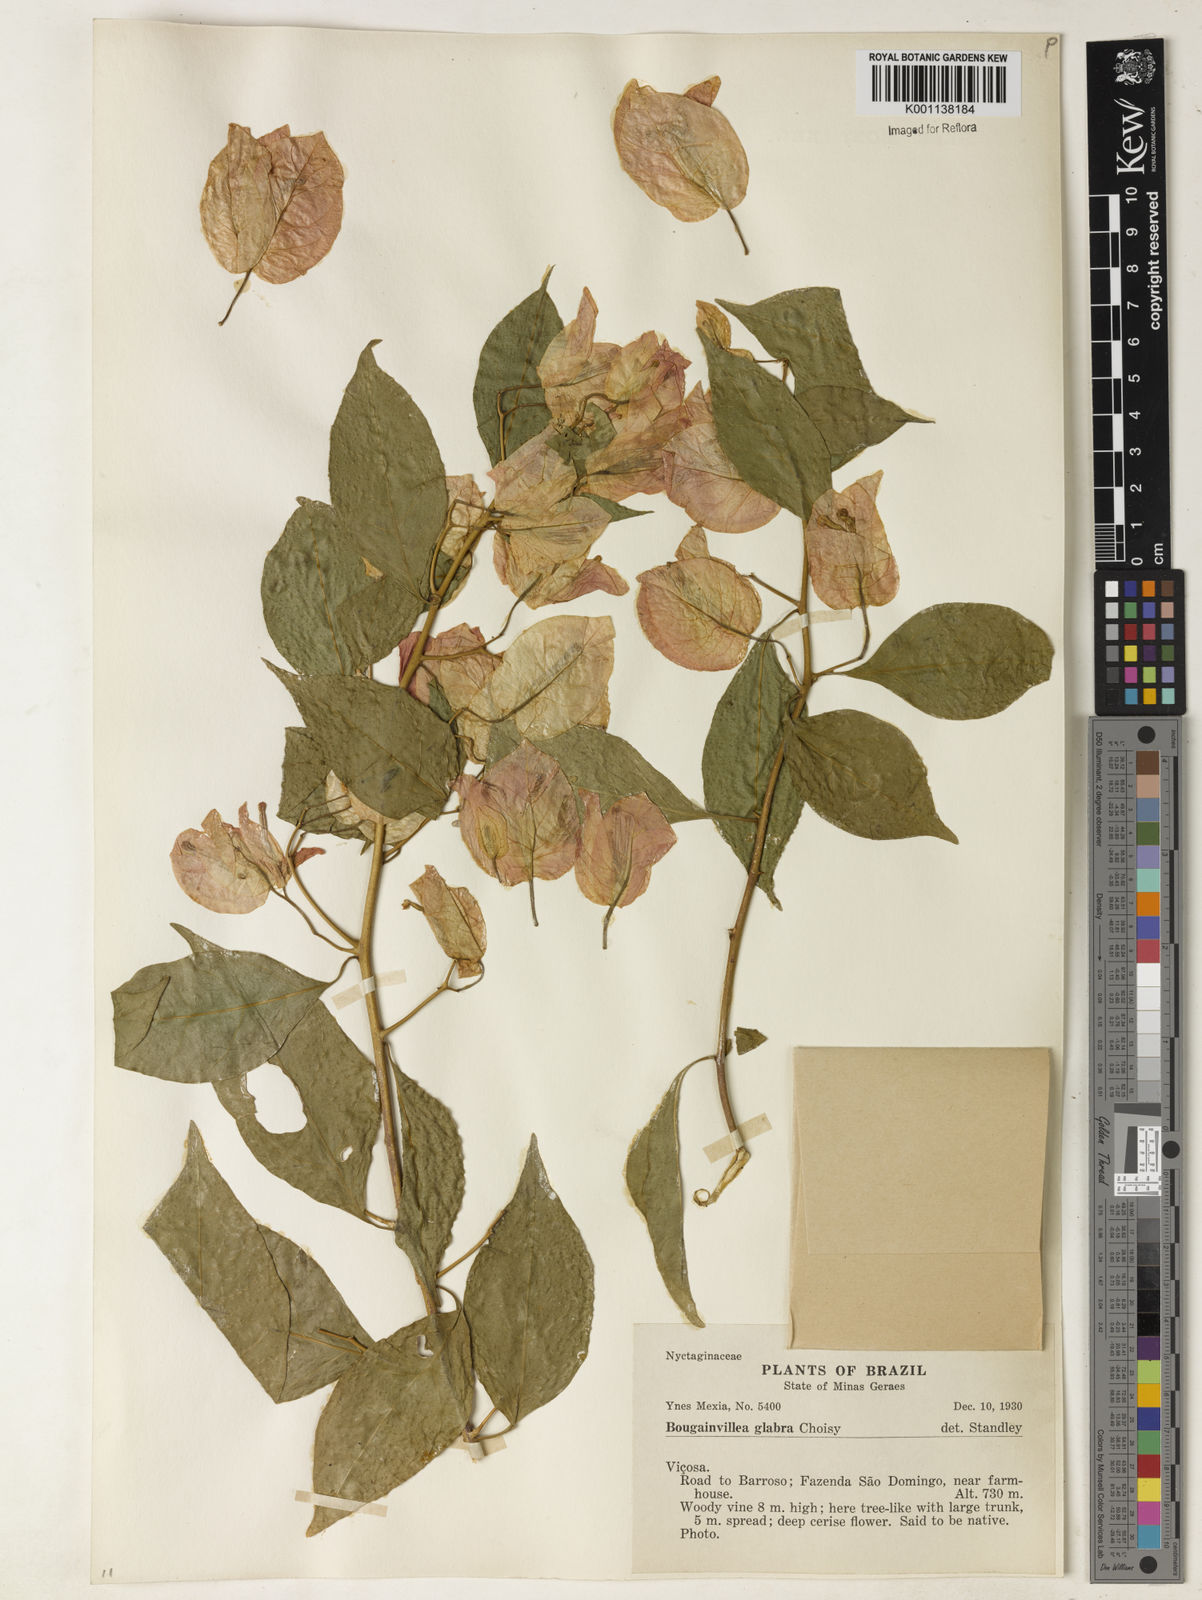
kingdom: Plantae
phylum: Tracheophyta
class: Magnoliopsida
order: Caryophyllales
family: Nyctaginaceae
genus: Bougainvillea
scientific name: Bougainvillea glabra
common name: Paperflower
